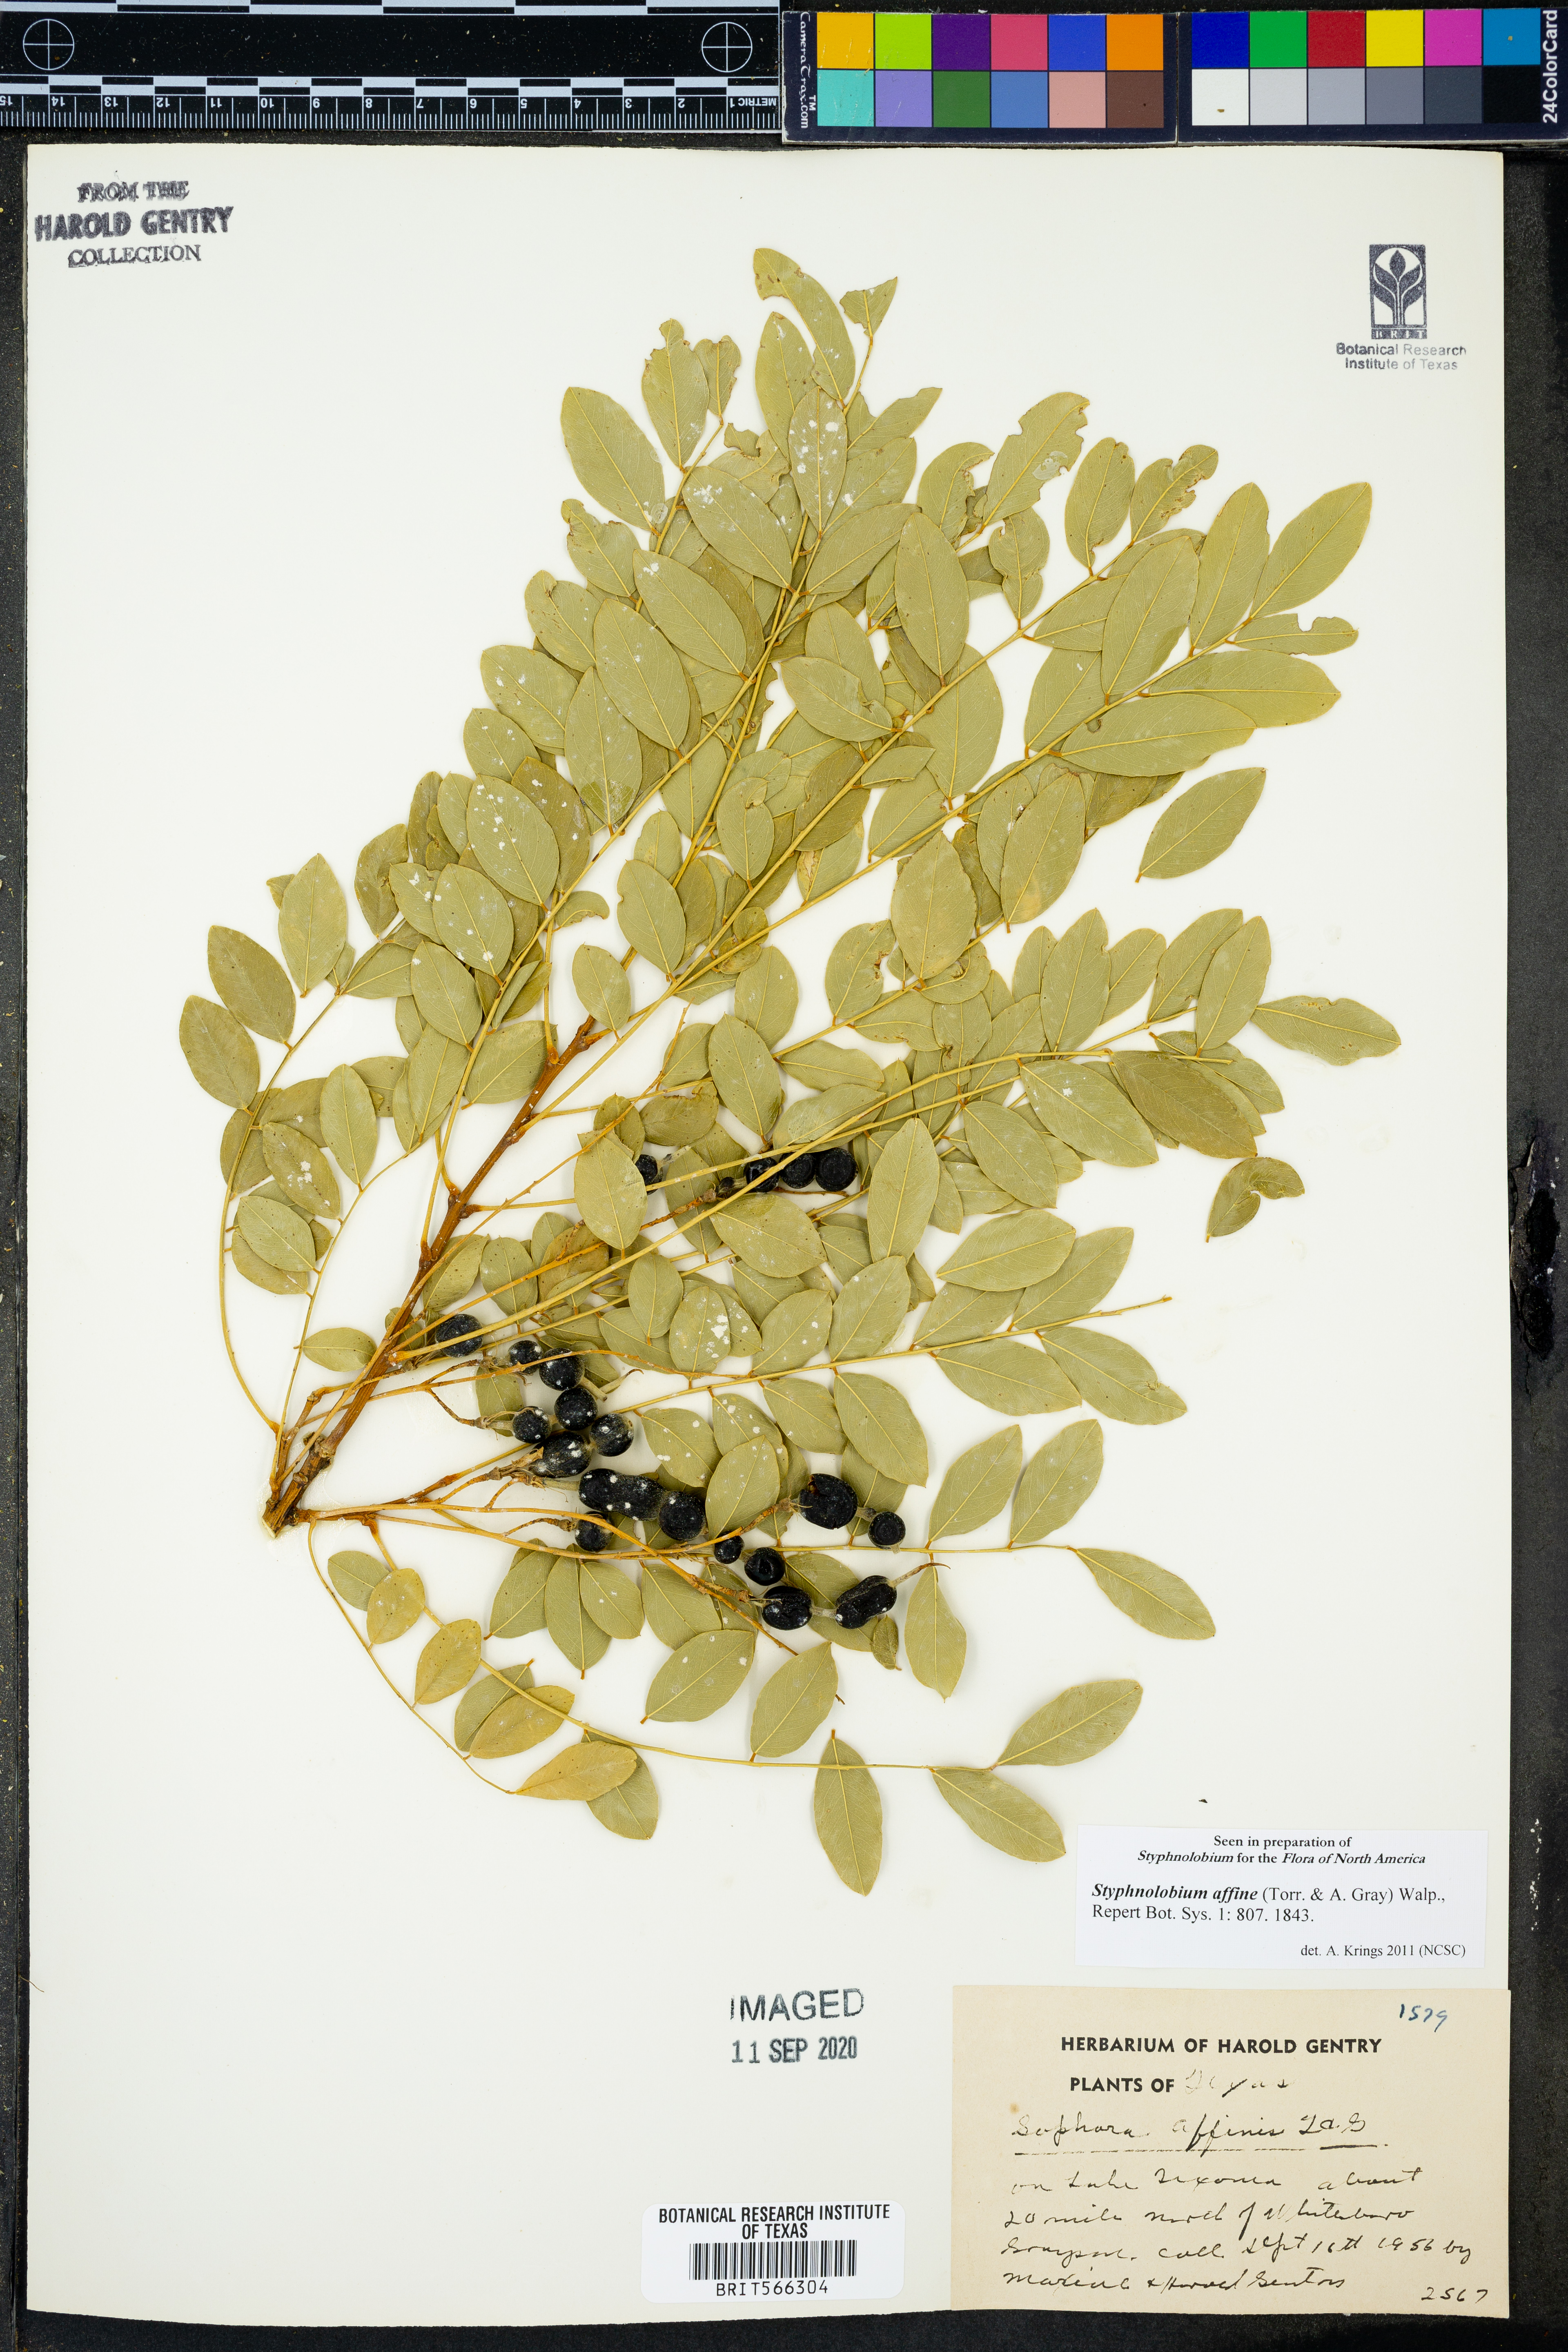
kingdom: Plantae
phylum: Tracheophyta
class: Magnoliopsida
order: Fabales
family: Fabaceae
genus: Styphnolobium
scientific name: Styphnolobium affine
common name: Texas sophora
